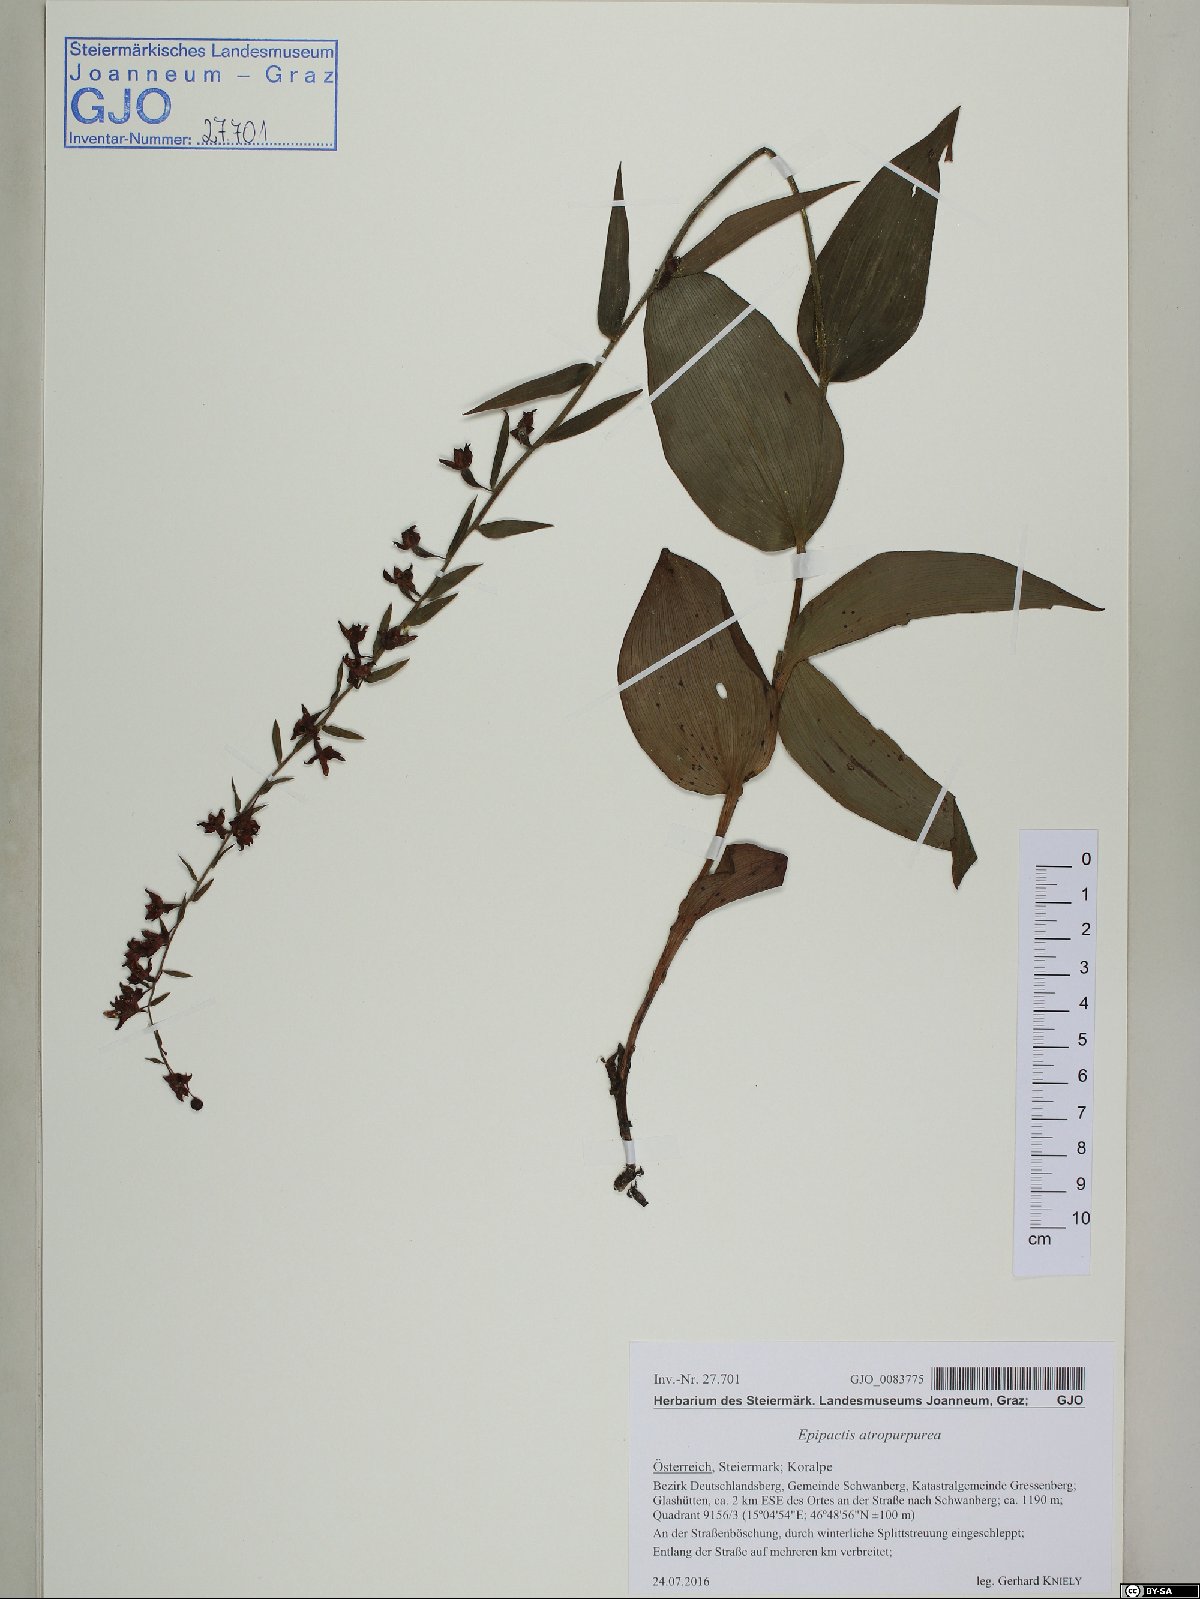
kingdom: Plantae
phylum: Tracheophyta
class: Liliopsida
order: Asparagales
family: Orchidaceae
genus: Epipactis
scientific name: Epipactis atrorubens
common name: Dark-red helleborine
